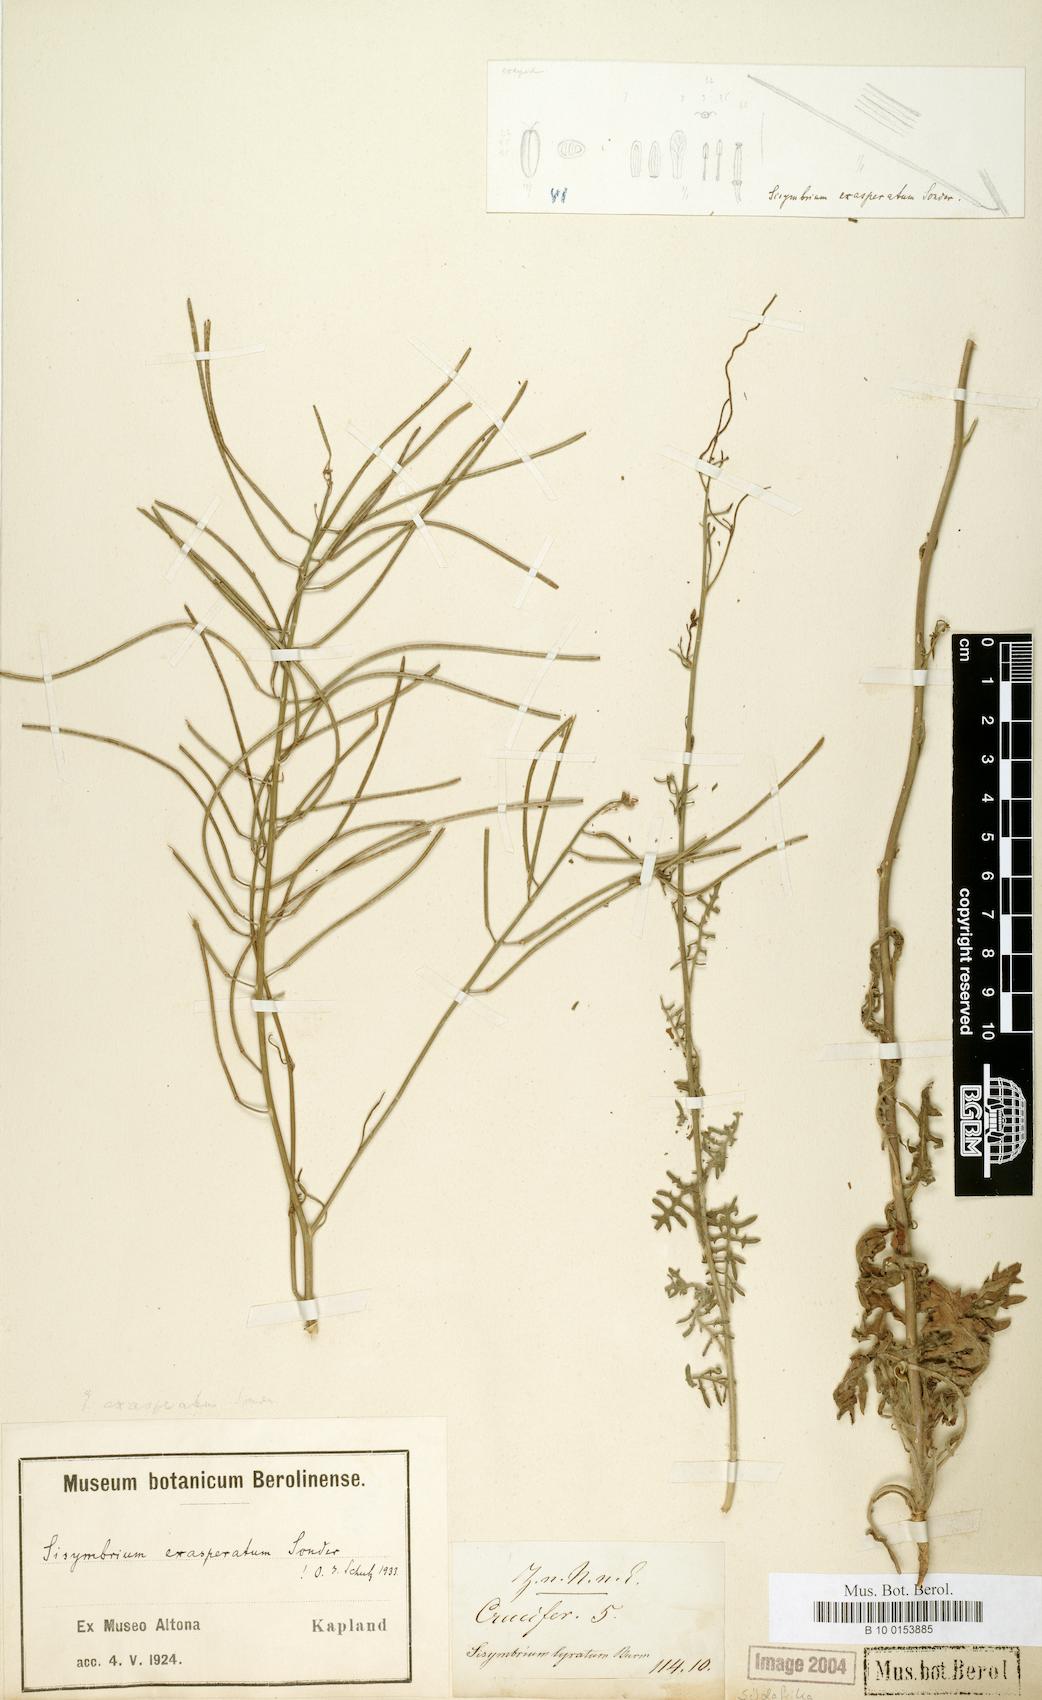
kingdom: Plantae
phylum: Tracheophyta
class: Magnoliopsida
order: Brassicales
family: Brassicaceae
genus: Sisymbrium
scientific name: Sisymbrium capense
